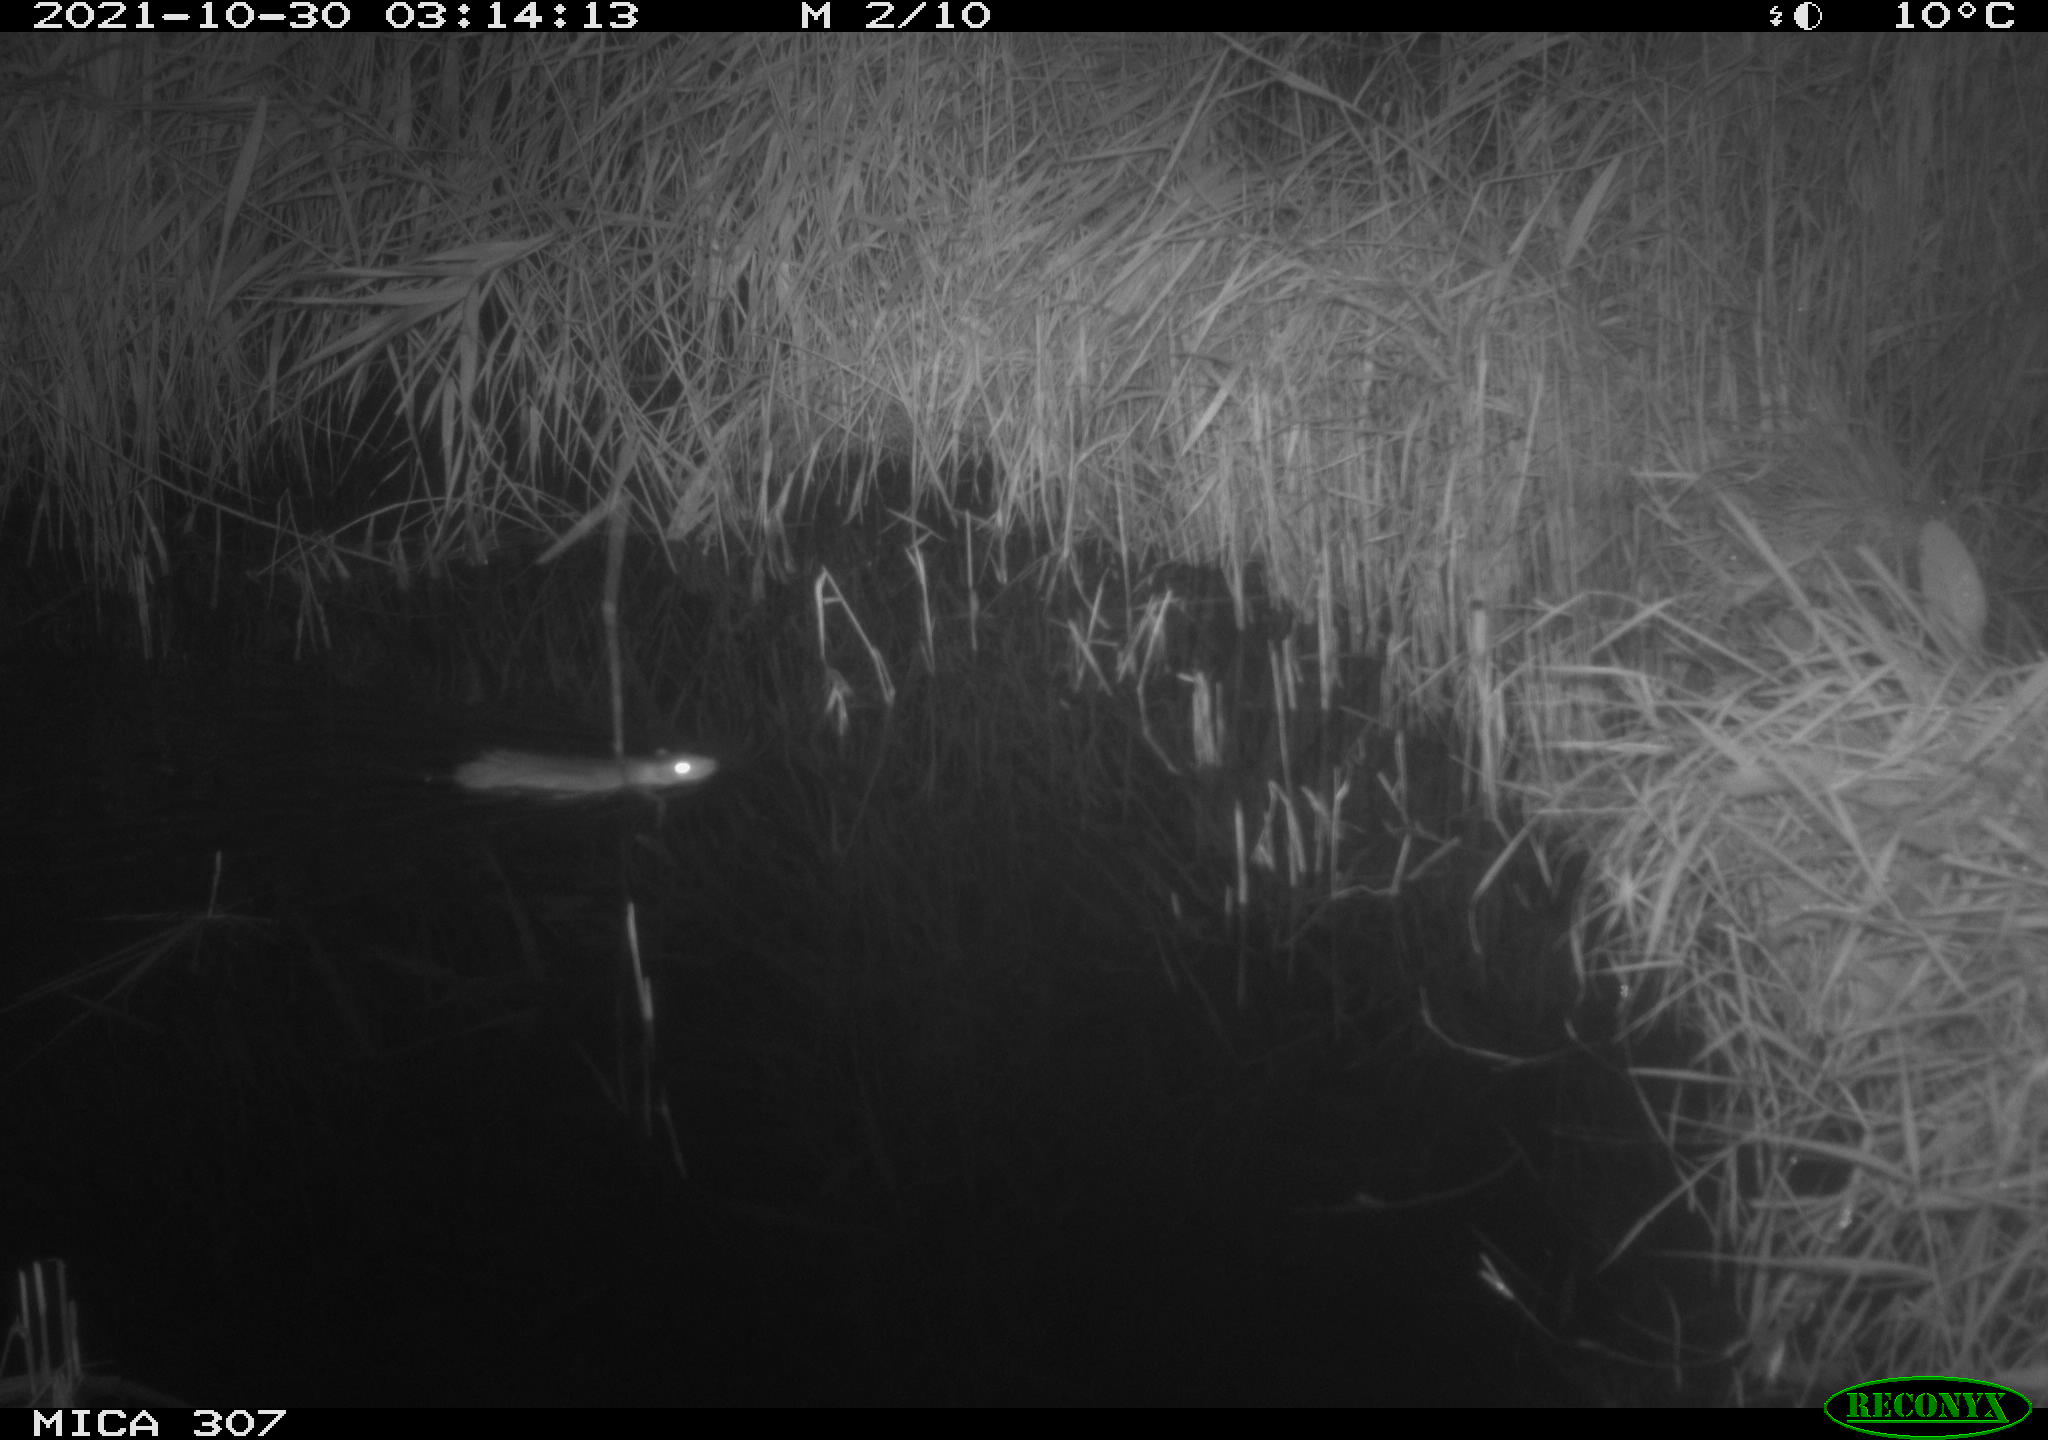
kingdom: Animalia
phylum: Chordata
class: Mammalia
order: Rodentia
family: Muridae
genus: Rattus
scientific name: Rattus norvegicus
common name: Brown rat
